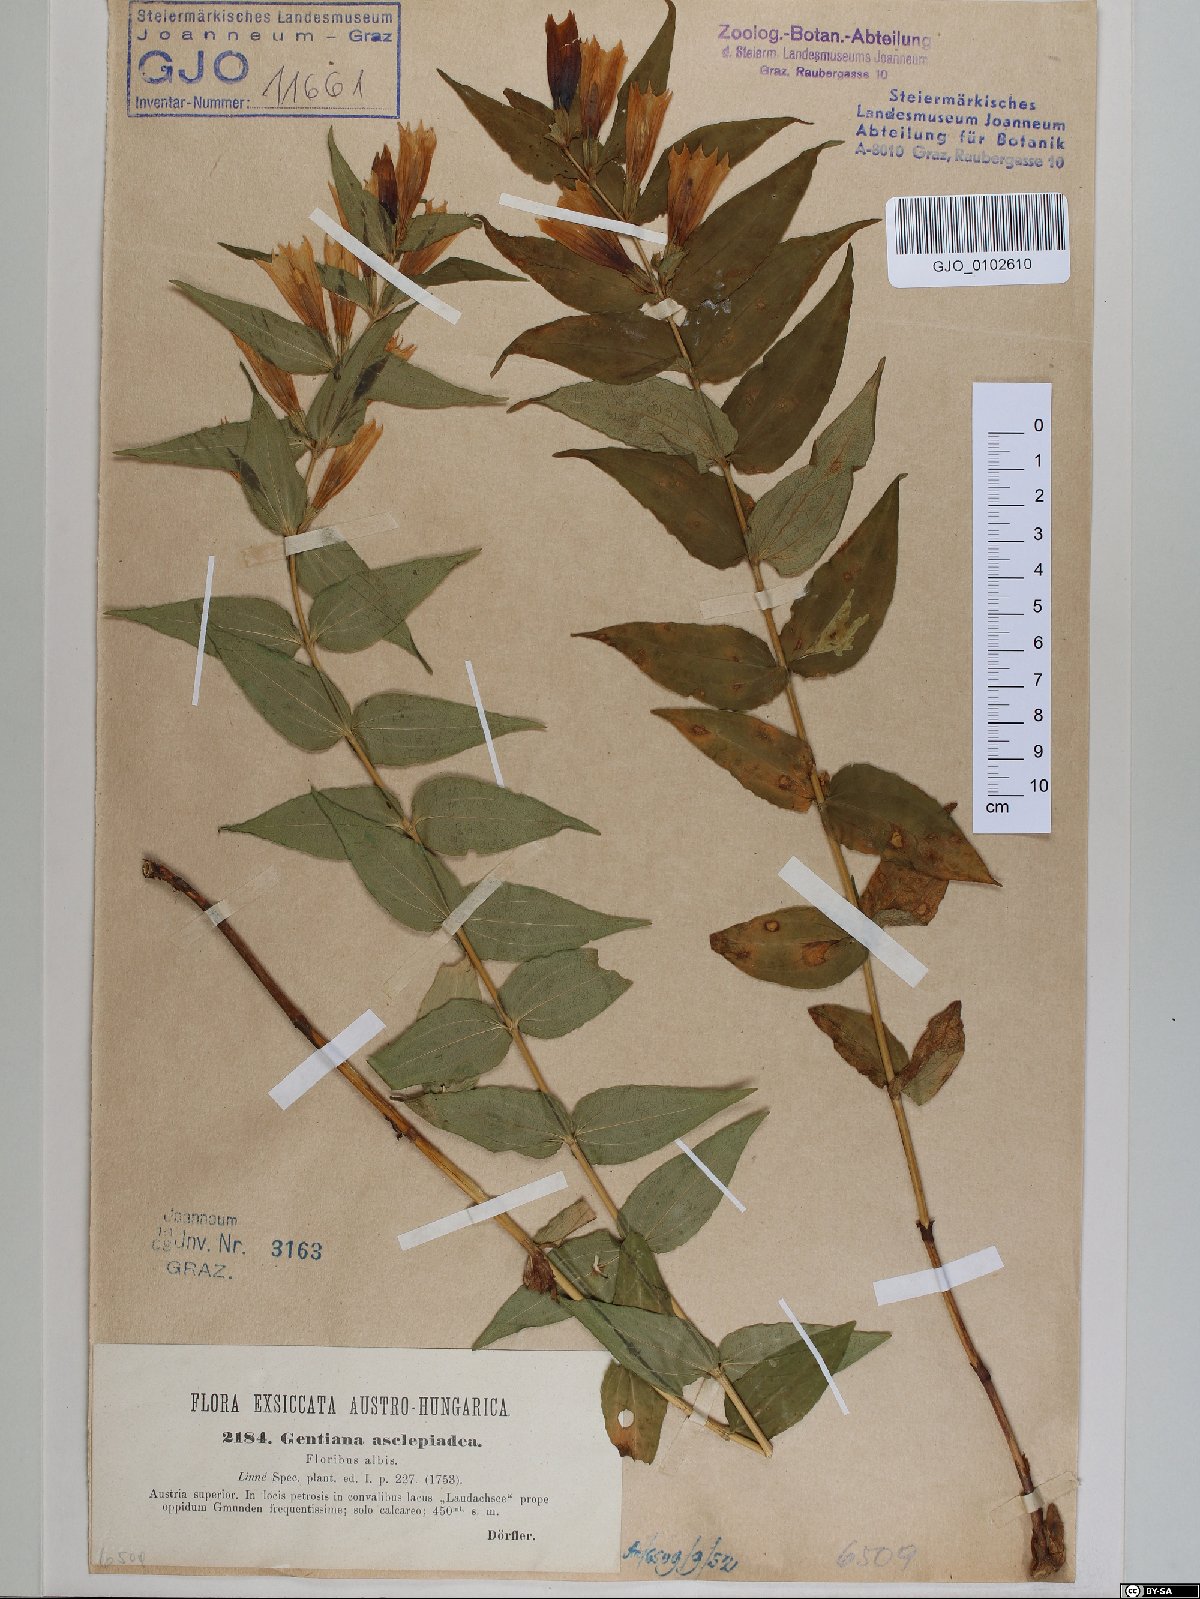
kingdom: Plantae
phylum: Tracheophyta
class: Magnoliopsida
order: Gentianales
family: Gentianaceae
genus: Gentiana
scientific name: Gentiana asclepiadea
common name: Willow gentian
